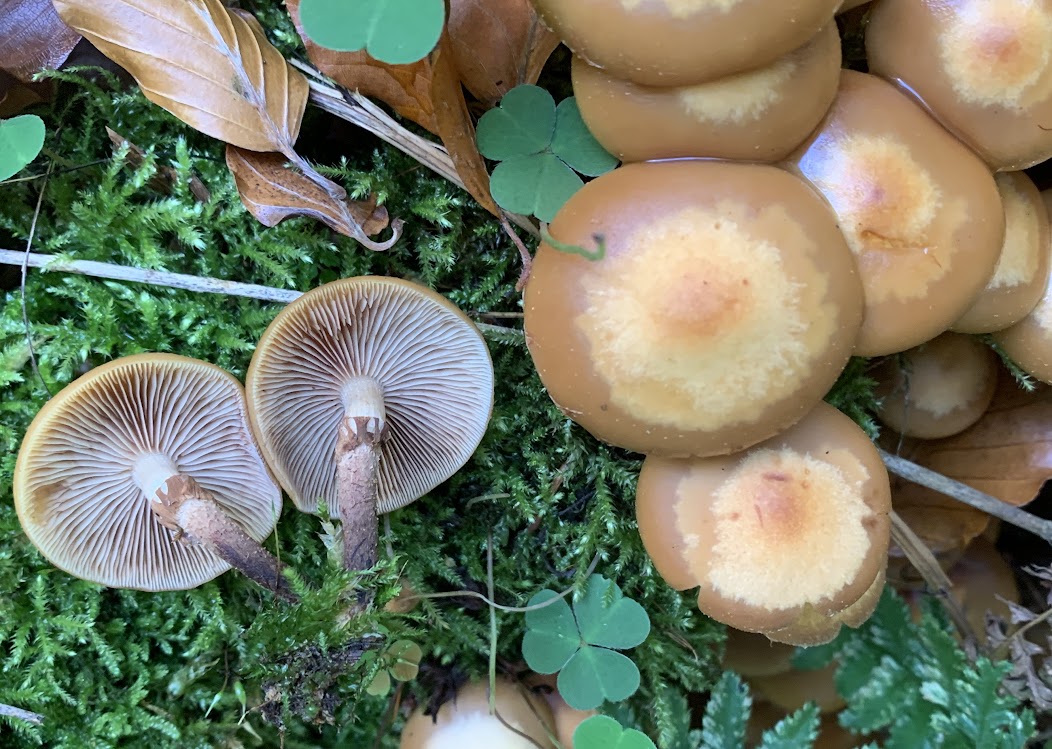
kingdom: Fungi
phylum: Basidiomycota
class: Agaricomycetes
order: Agaricales
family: Strophariaceae
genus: Kuehneromyces
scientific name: Kuehneromyces mutabilis
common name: foranderlig skælhat
